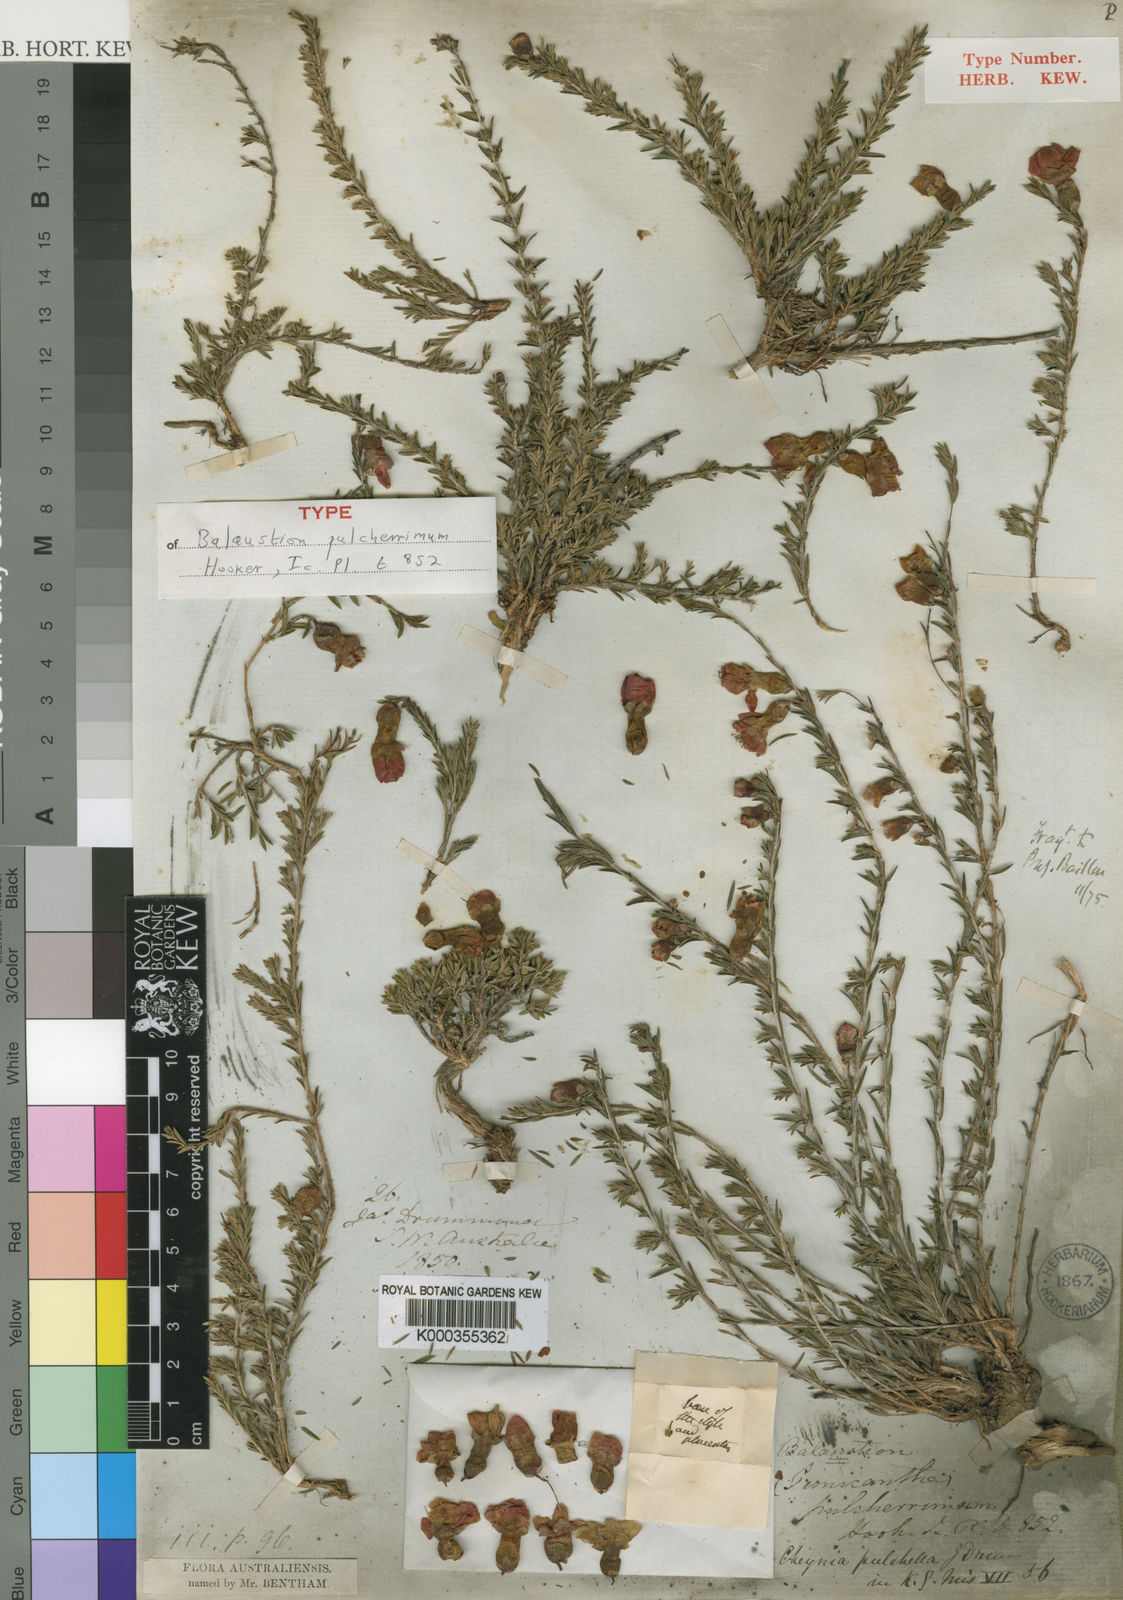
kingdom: Plantae
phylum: Tracheophyta
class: Magnoliopsida
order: Myrtales
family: Myrtaceae
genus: Balaustion
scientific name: Balaustion pulcherrimum
